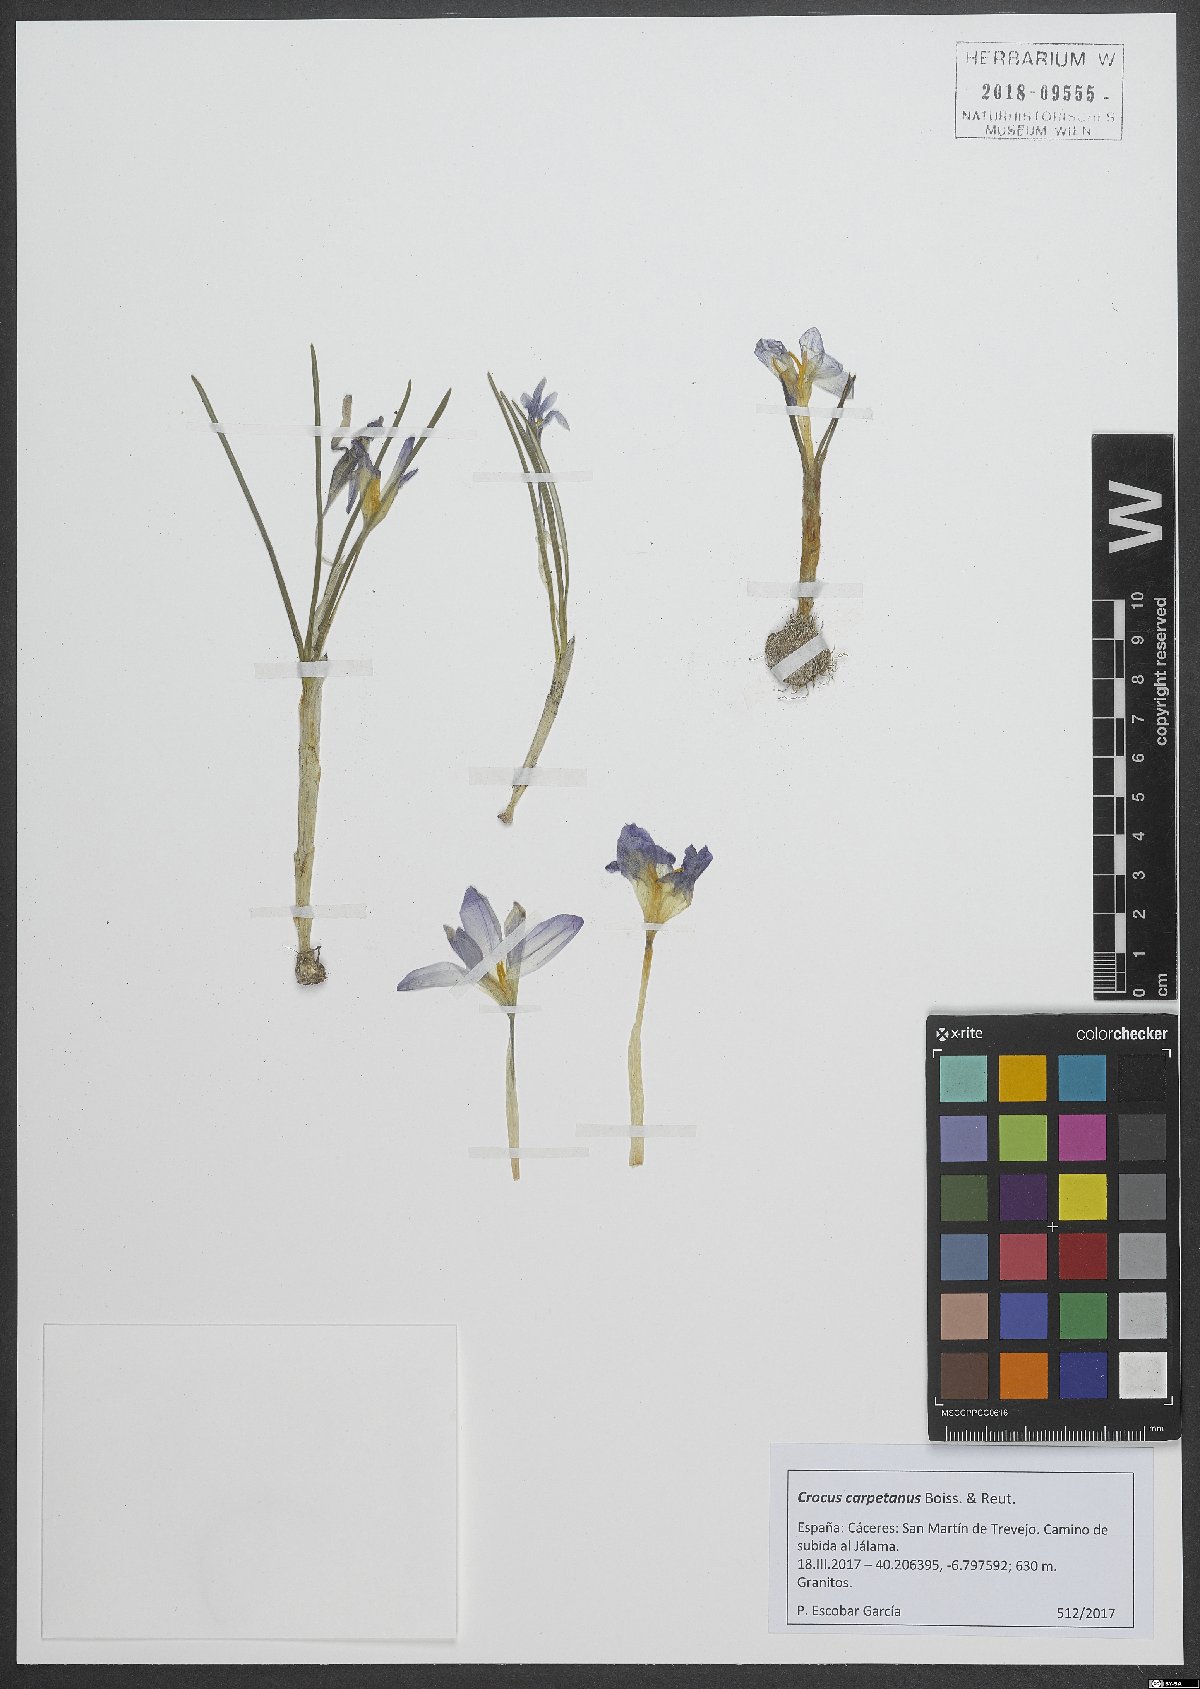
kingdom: Plantae
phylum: Tracheophyta
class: Liliopsida
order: Asparagales
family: Iridaceae
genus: Crocus
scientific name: Crocus carpetanus
